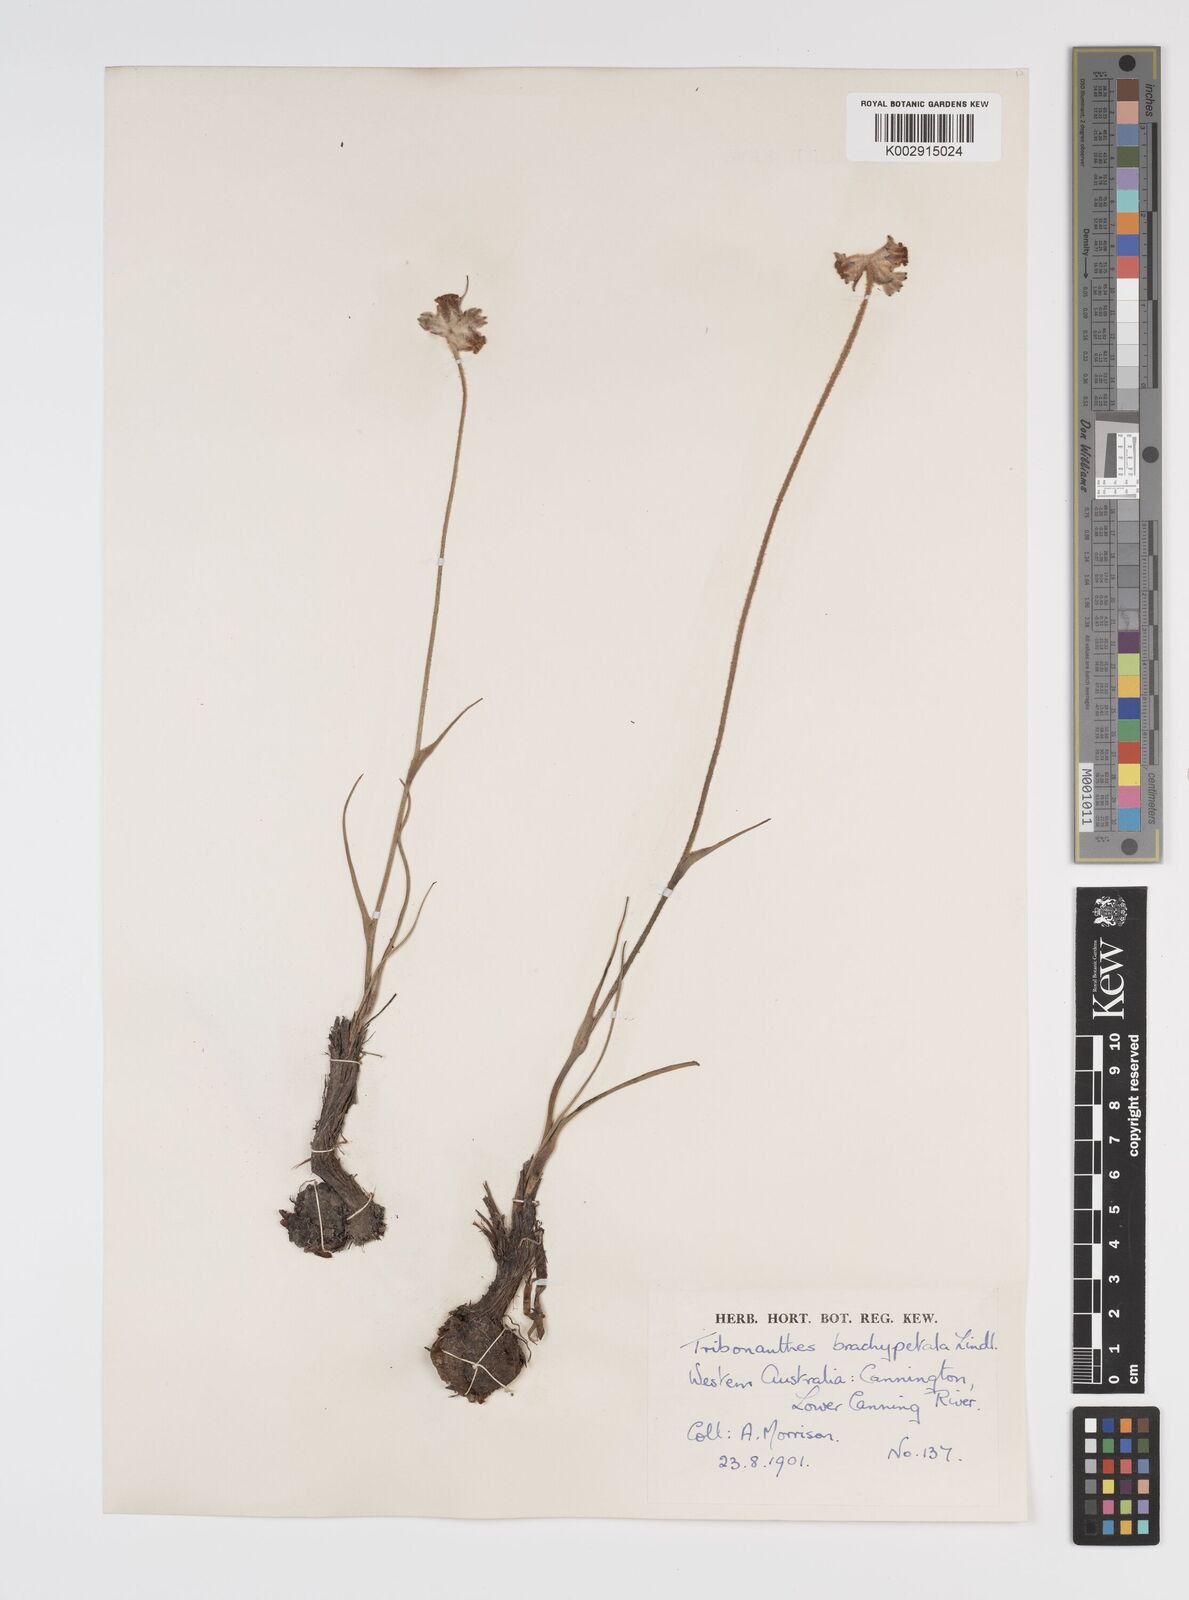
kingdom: Plantae
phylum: Tracheophyta
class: Liliopsida
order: Commelinales
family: Haemodoraceae
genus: Tribonanthes
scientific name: Tribonanthes brachypetala
